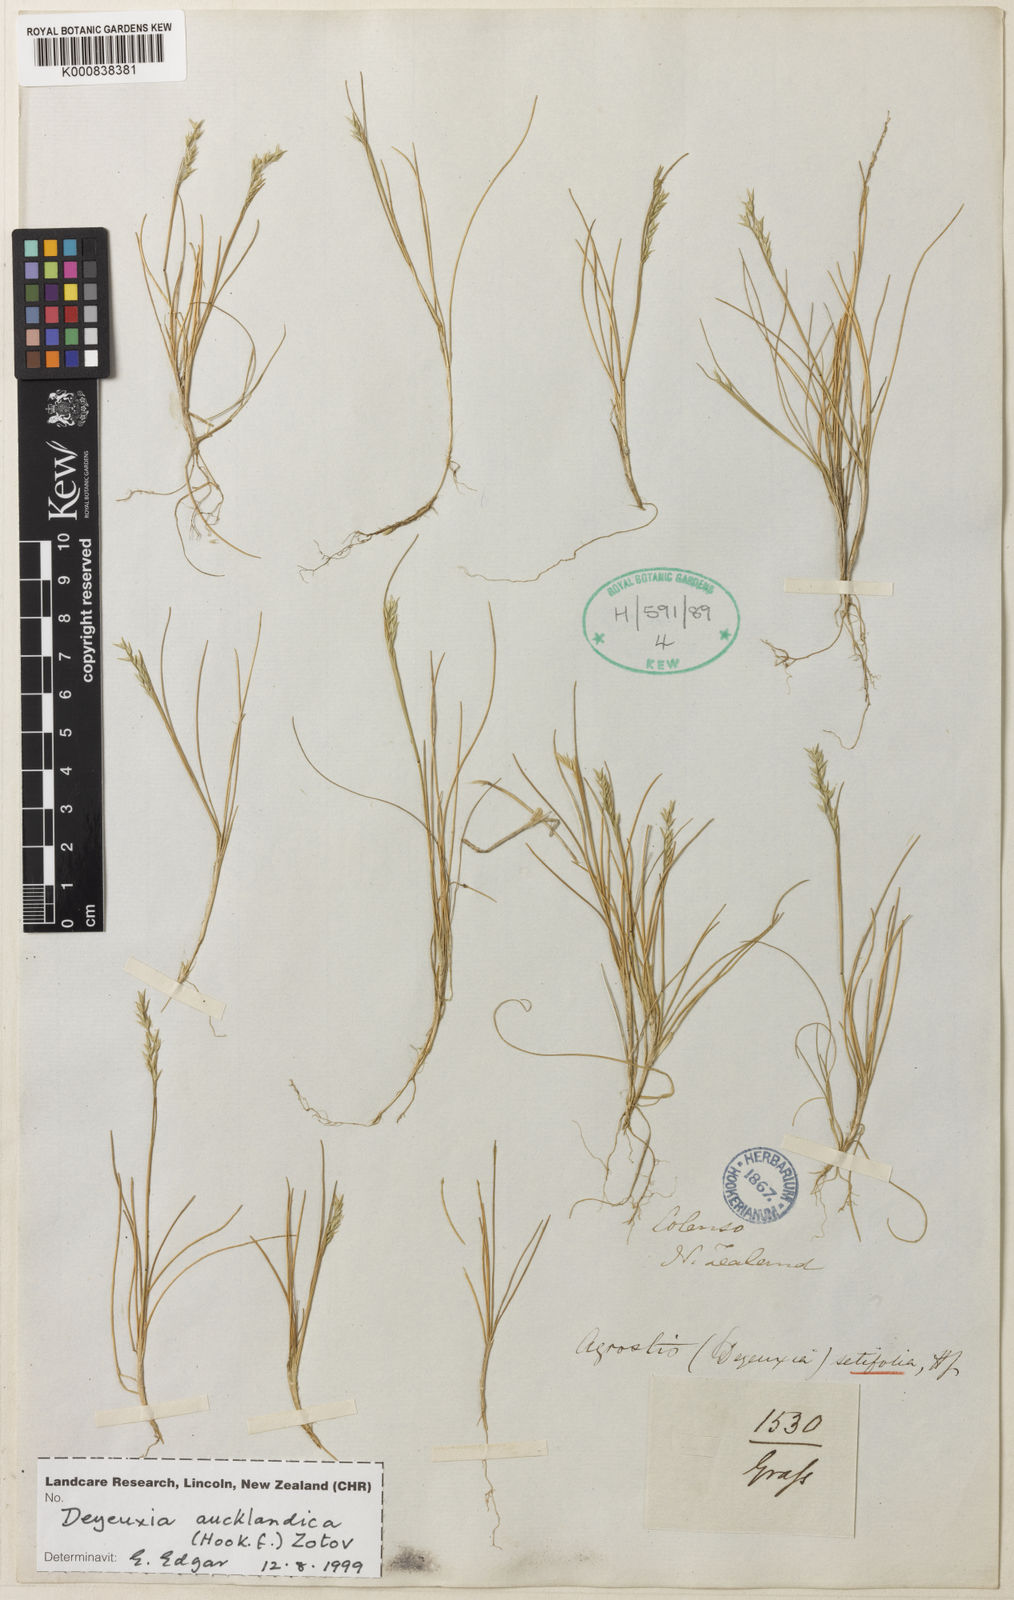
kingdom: Plantae
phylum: Tracheophyta
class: Liliopsida
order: Poales
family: Poaceae
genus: Agrostis
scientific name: Agrostis aucklandica
